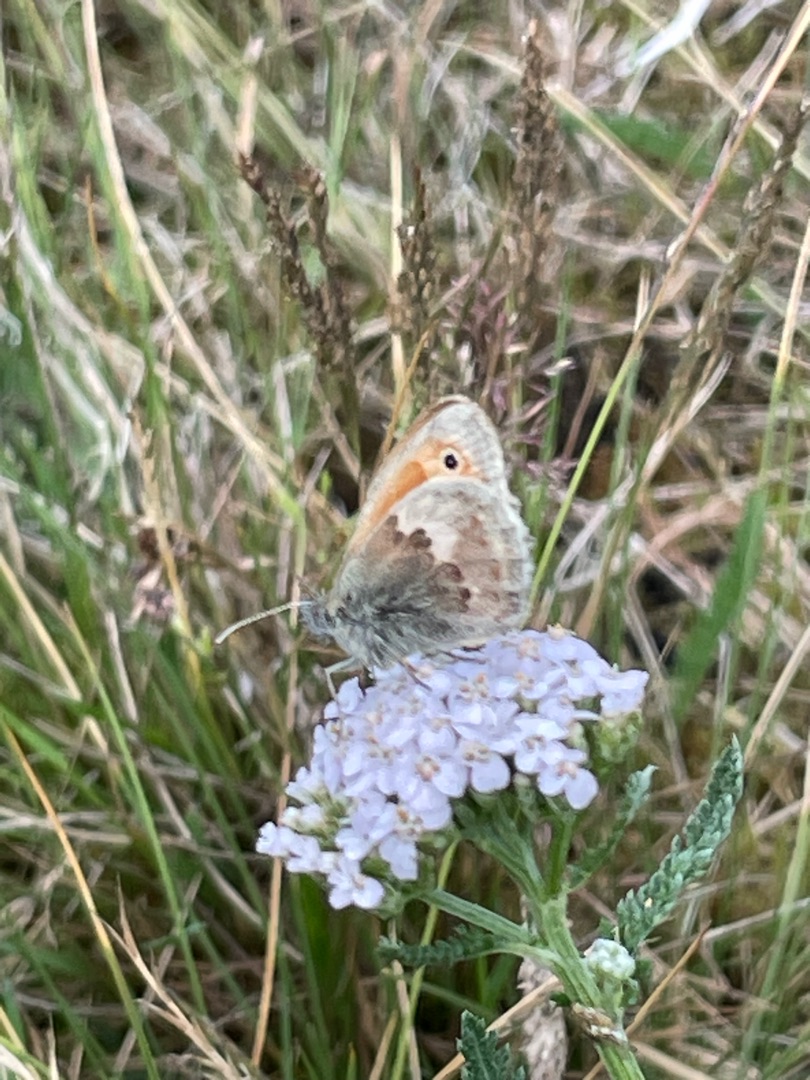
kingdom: Animalia
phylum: Arthropoda
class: Insecta
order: Lepidoptera
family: Nymphalidae
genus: Coenonympha
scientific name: Coenonympha pamphilus
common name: Okkergul randøje
